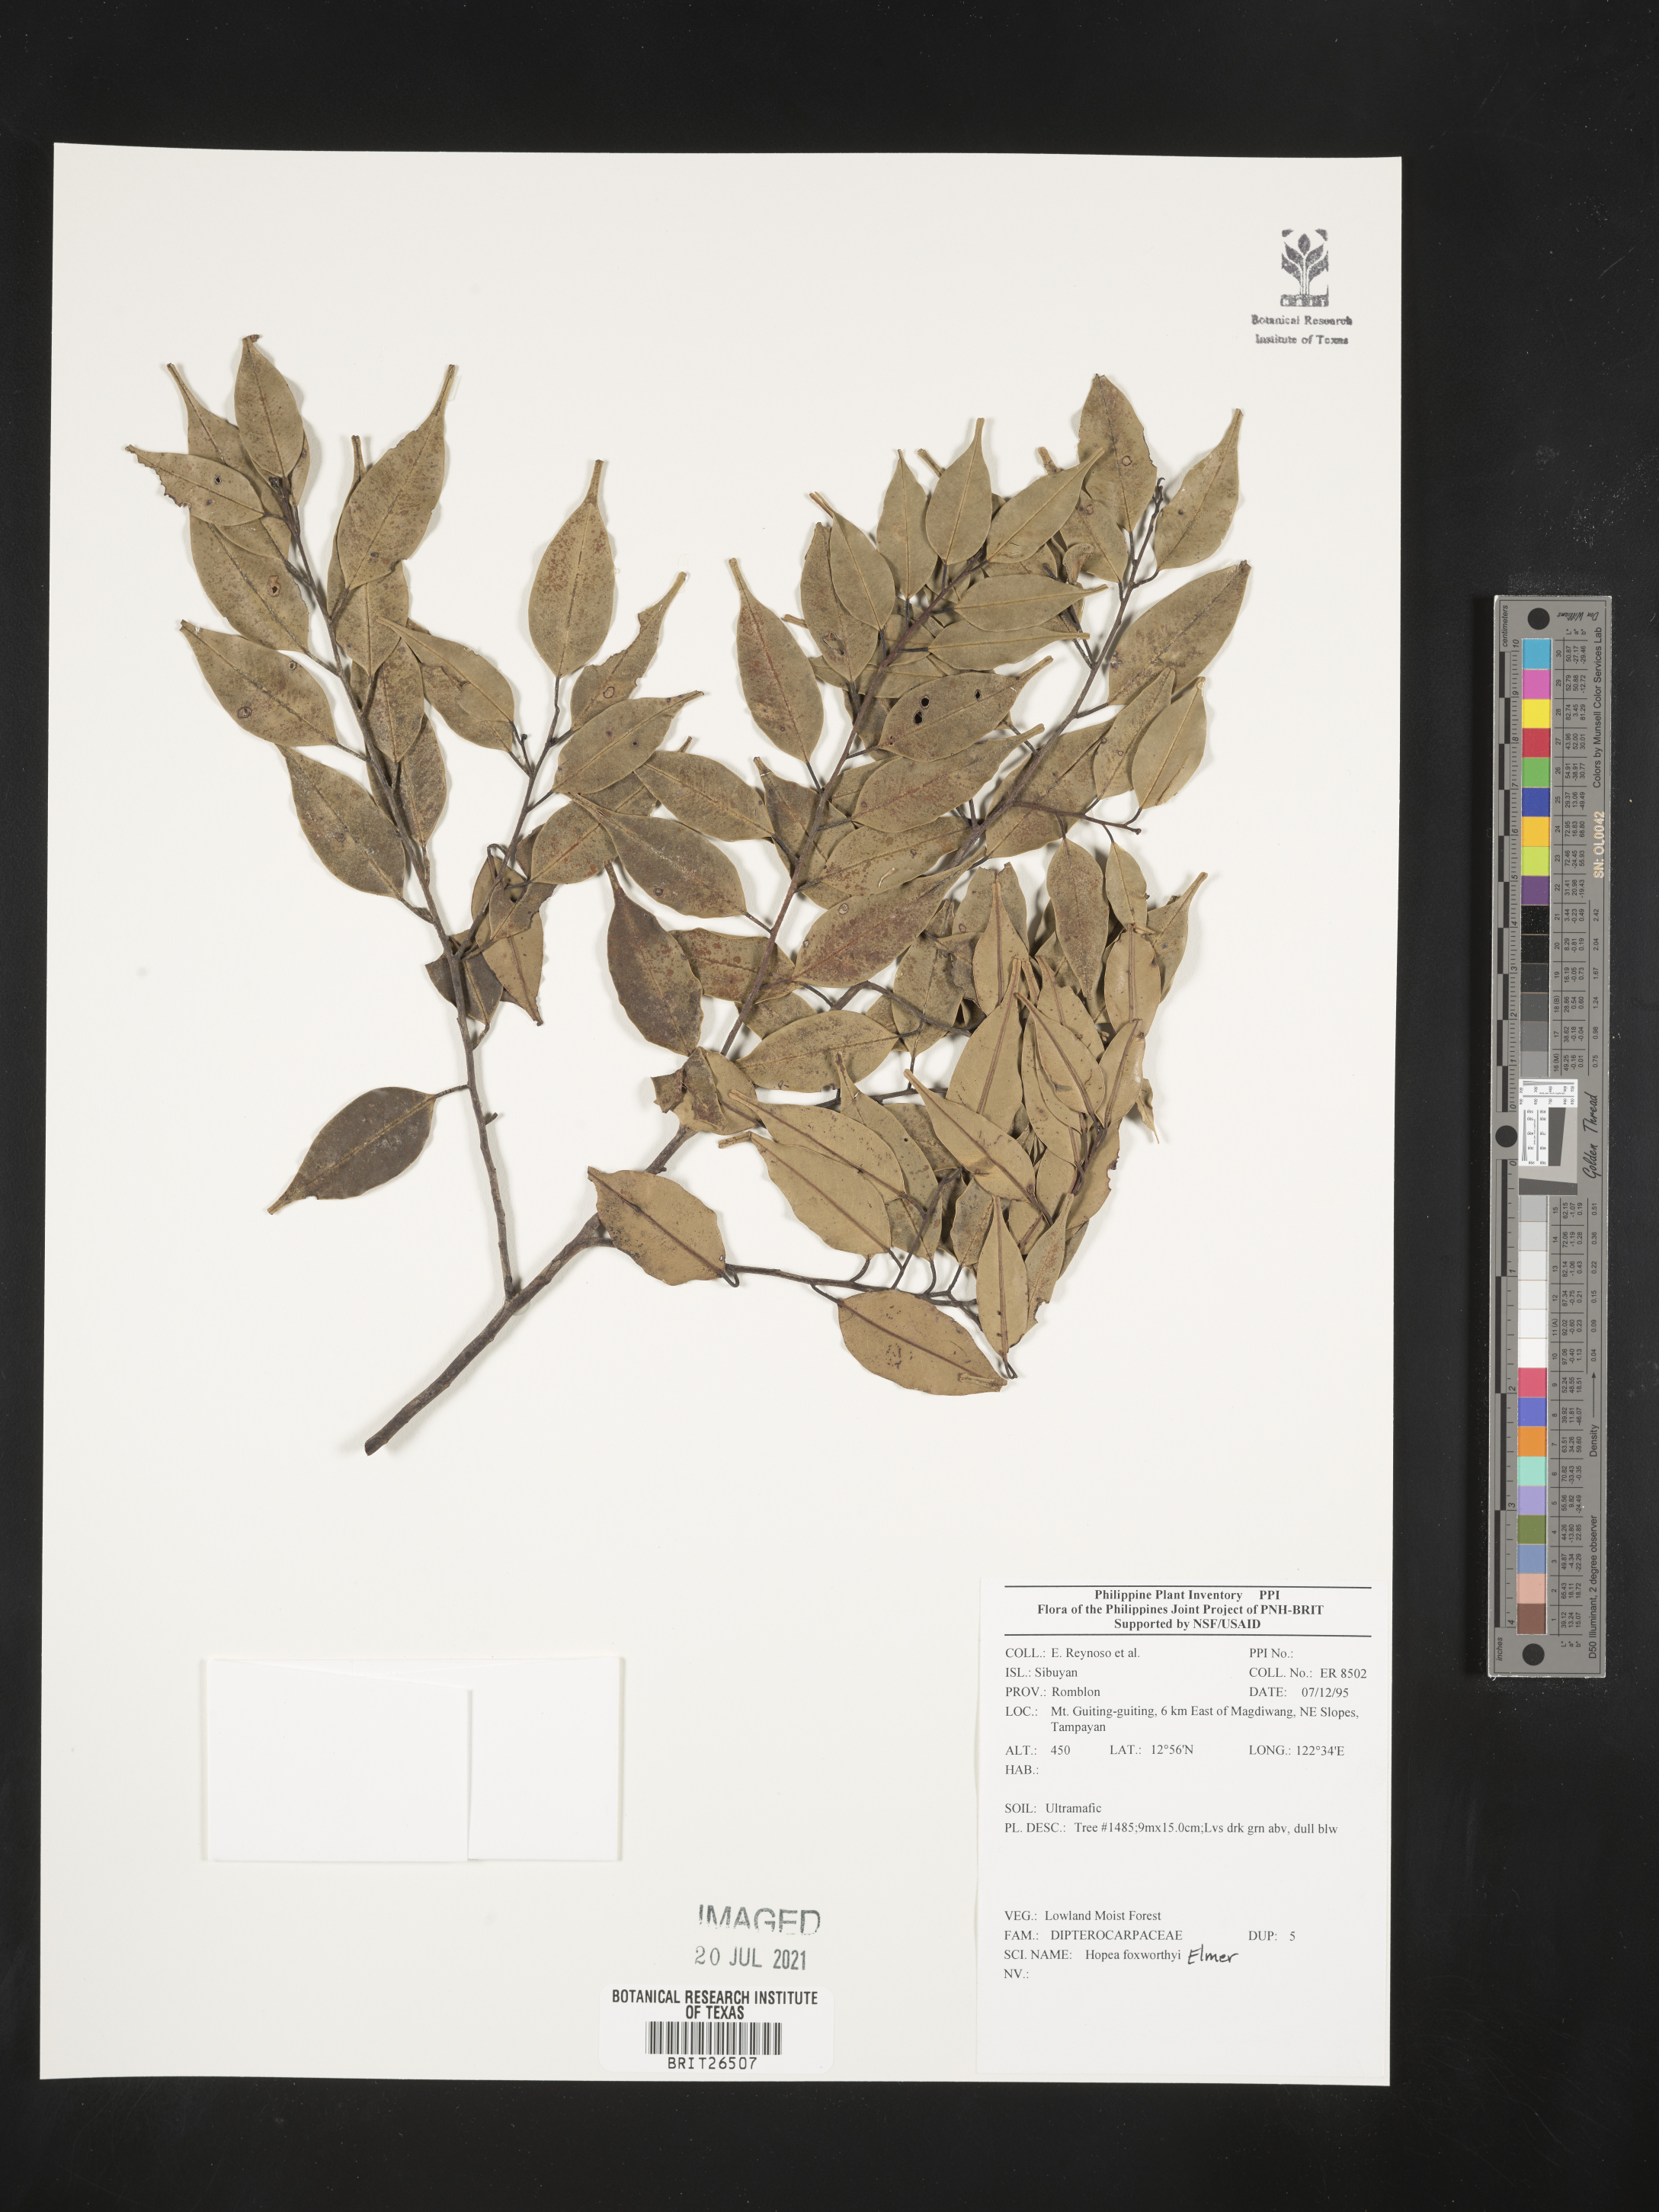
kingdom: Plantae
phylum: Tracheophyta
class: Magnoliopsida
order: Malvales
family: Dipterocarpaceae
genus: Hopea
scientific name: Hopea foxworthyi
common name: Dalingdingan
